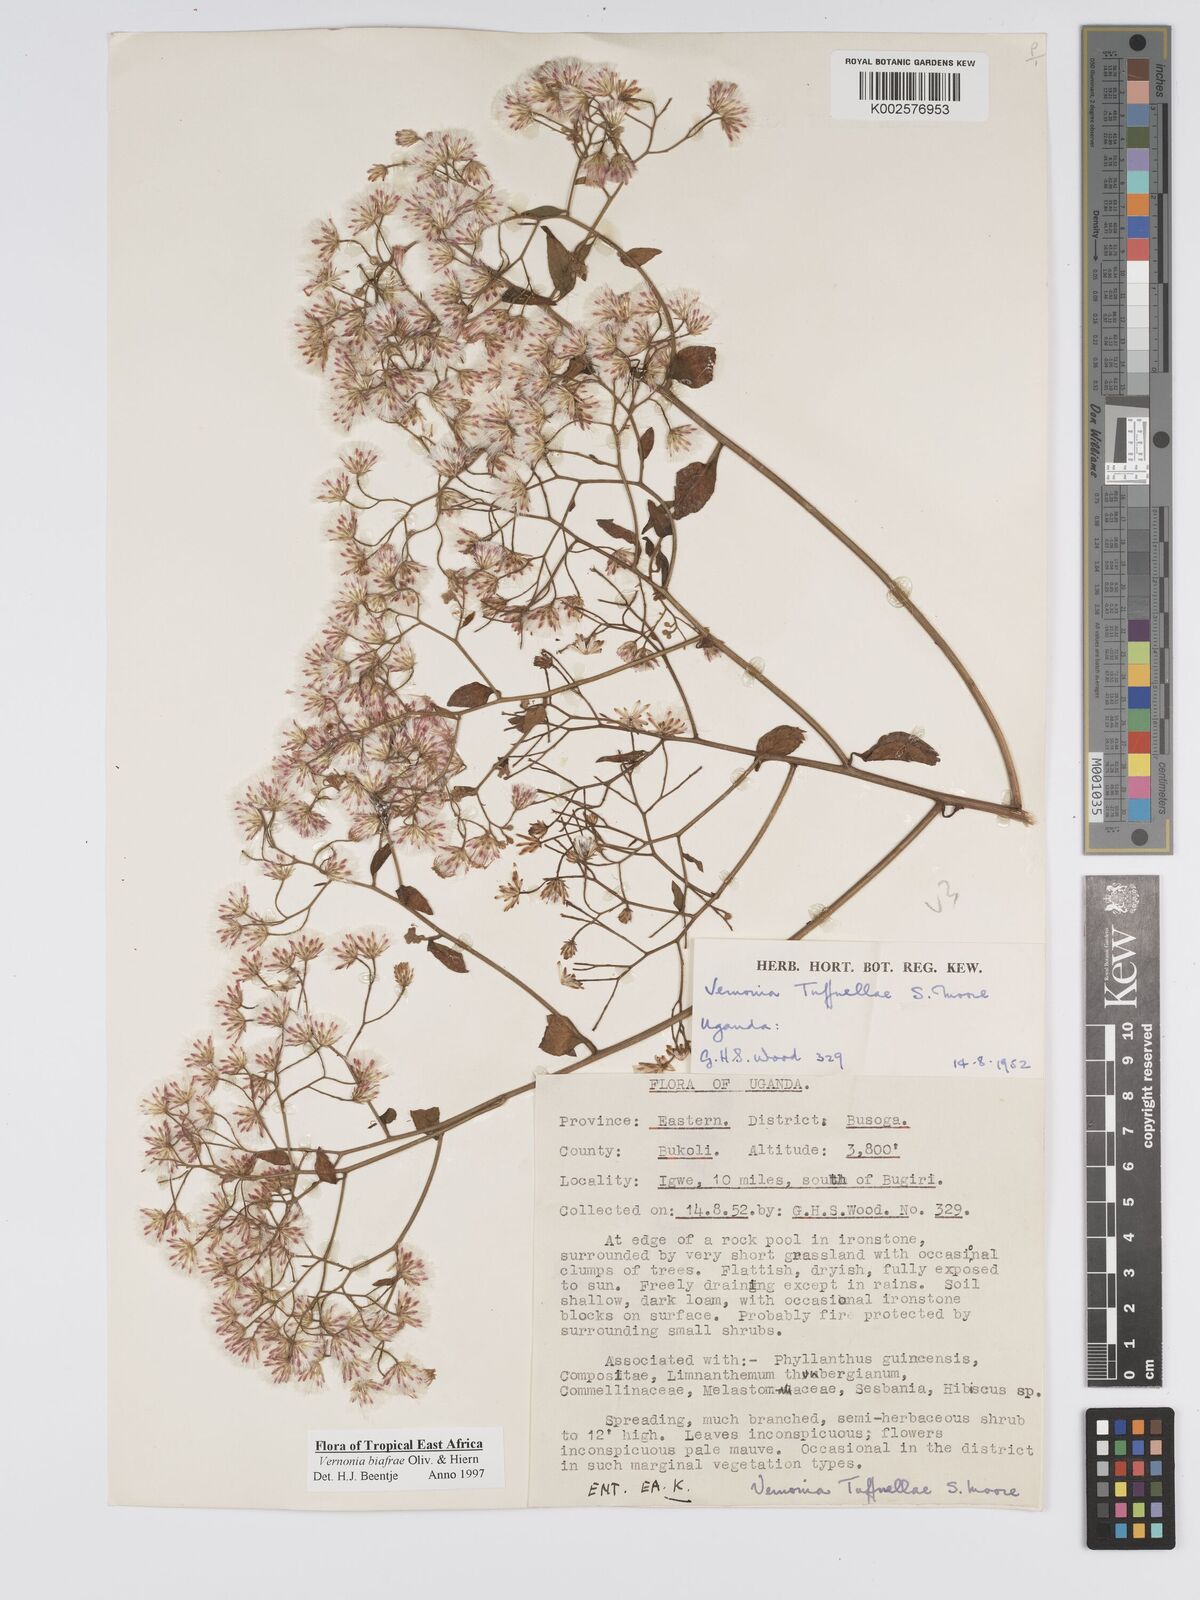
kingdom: Plantae
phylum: Tracheophyta
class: Magnoliopsida
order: Asterales
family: Asteraceae
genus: Distephanus
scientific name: Distephanus biafrae
